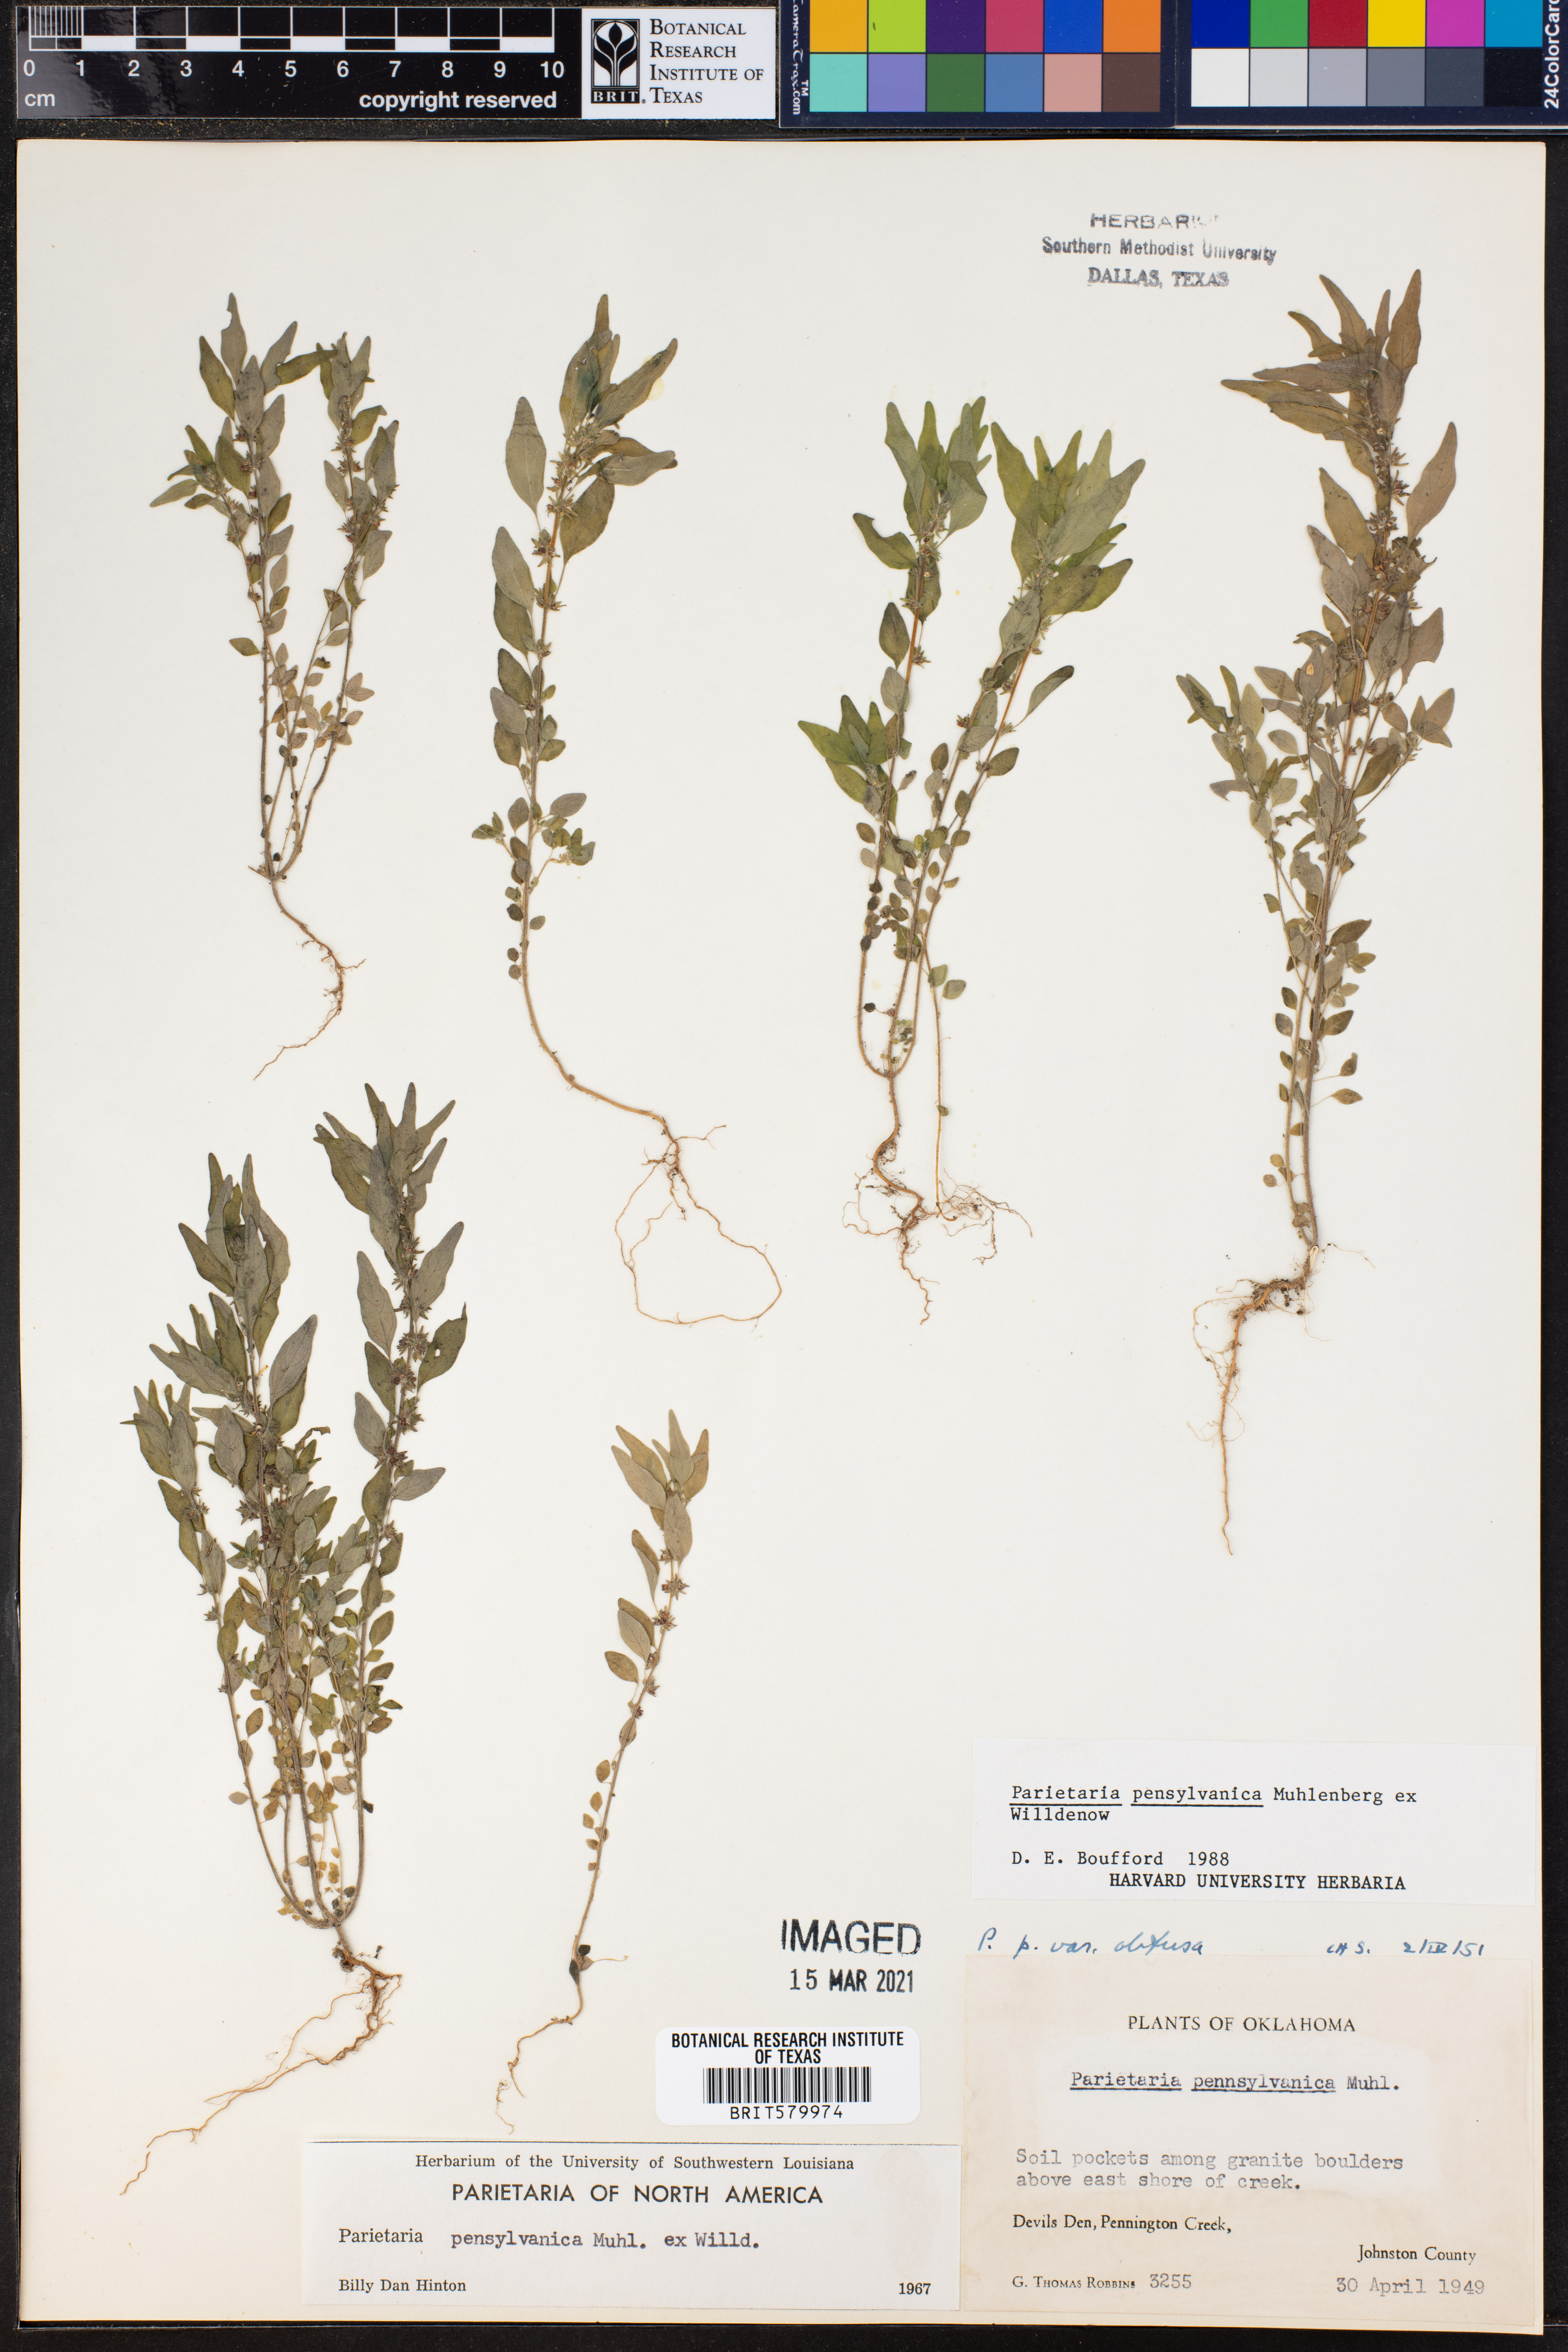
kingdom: Plantae
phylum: Tracheophyta
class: Magnoliopsida
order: Rosales
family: Urticaceae
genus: Parietaria
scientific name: Parietaria pensylvanica
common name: Pennsylvania pellitory
